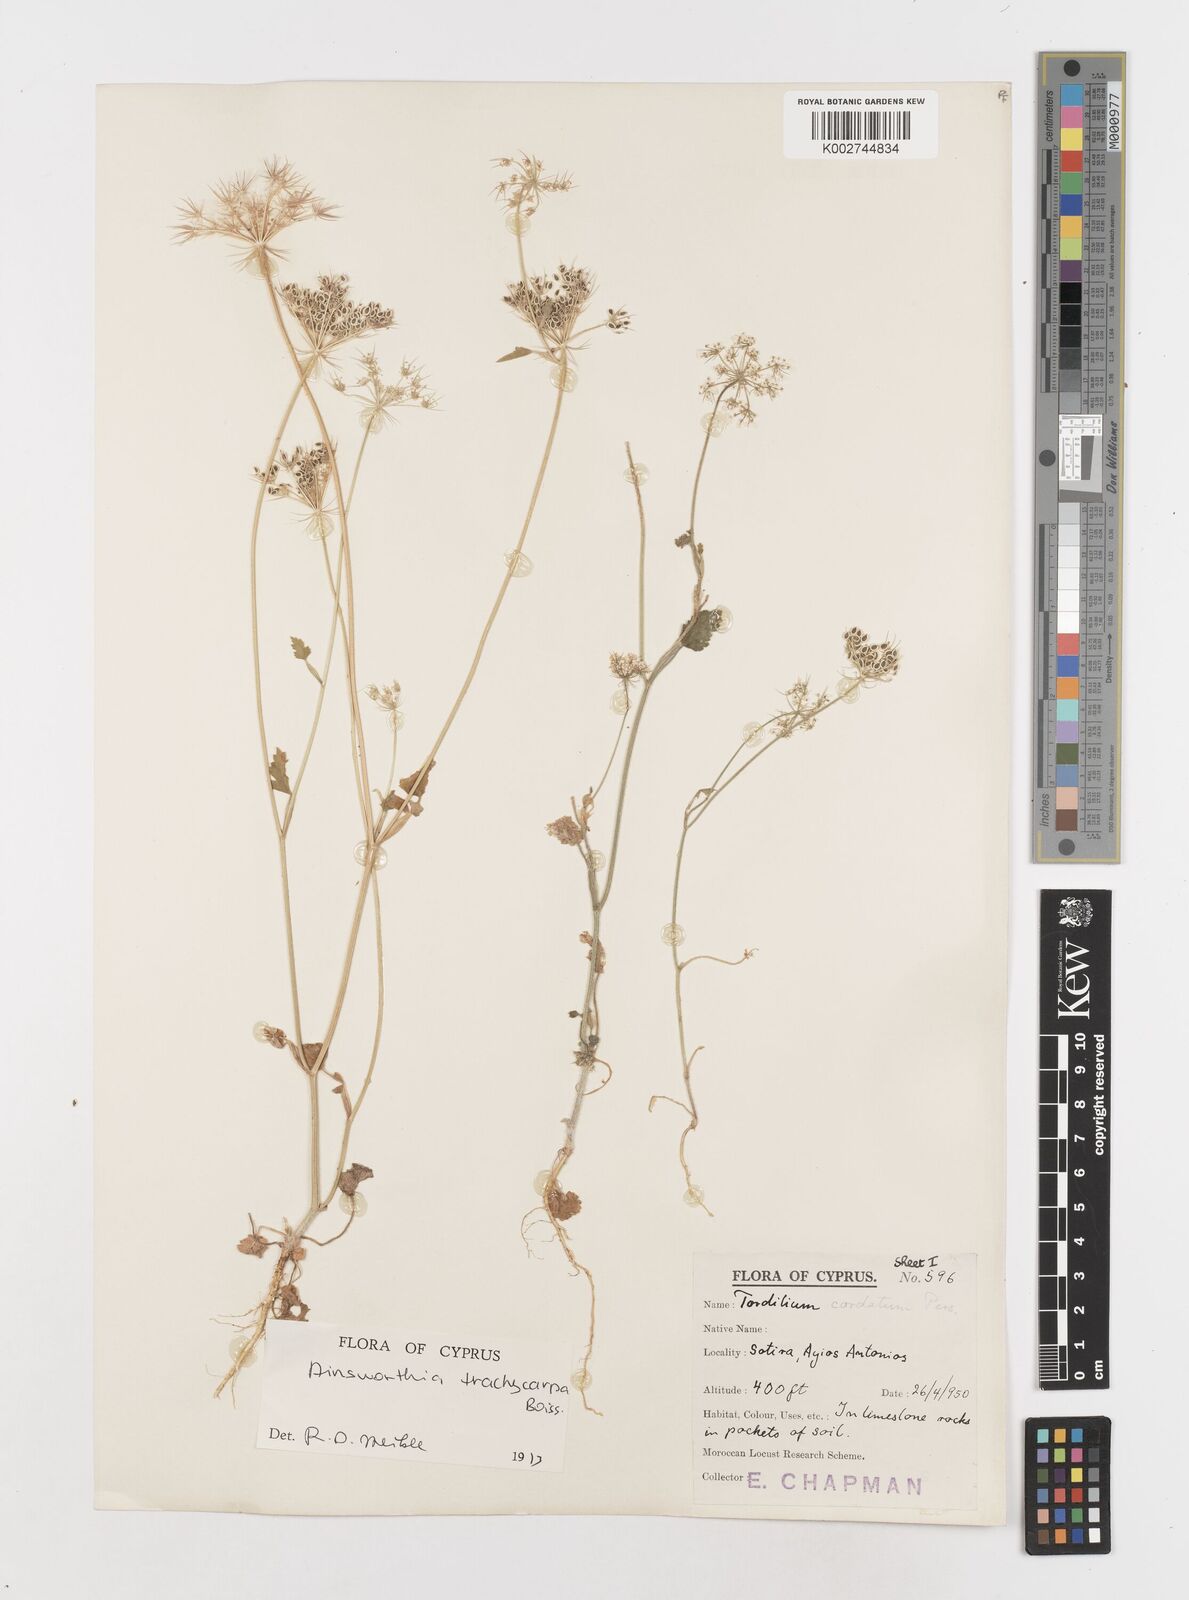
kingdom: Plantae
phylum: Tracheophyta
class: Magnoliopsida
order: Apiales
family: Apiaceae
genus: Ainsworthia
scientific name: Ainsworthia trachycarpa
